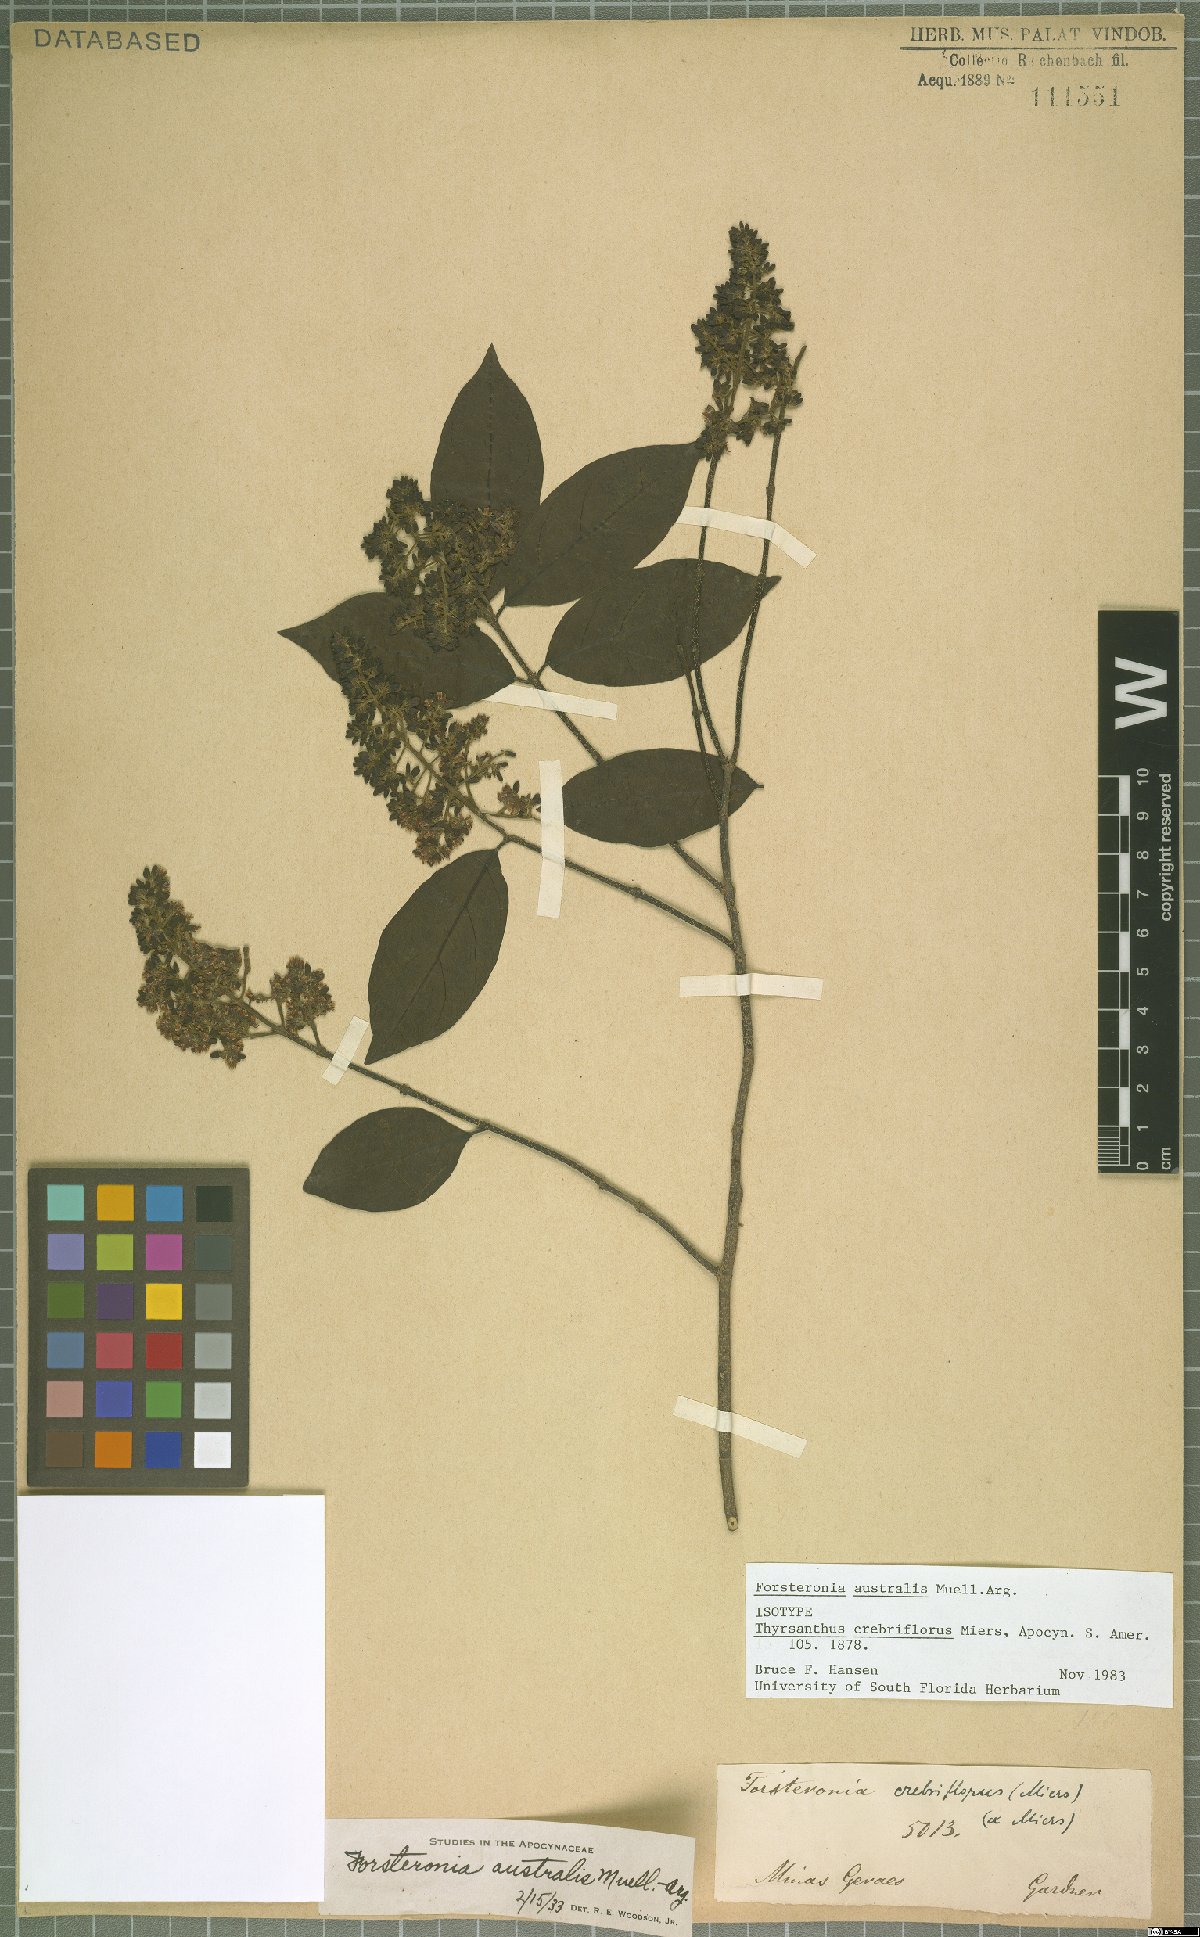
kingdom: Plantae
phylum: Tracheophyta
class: Magnoliopsida
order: Gentianales
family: Apocynaceae
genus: Forsteronia
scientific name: Forsteronia australis
